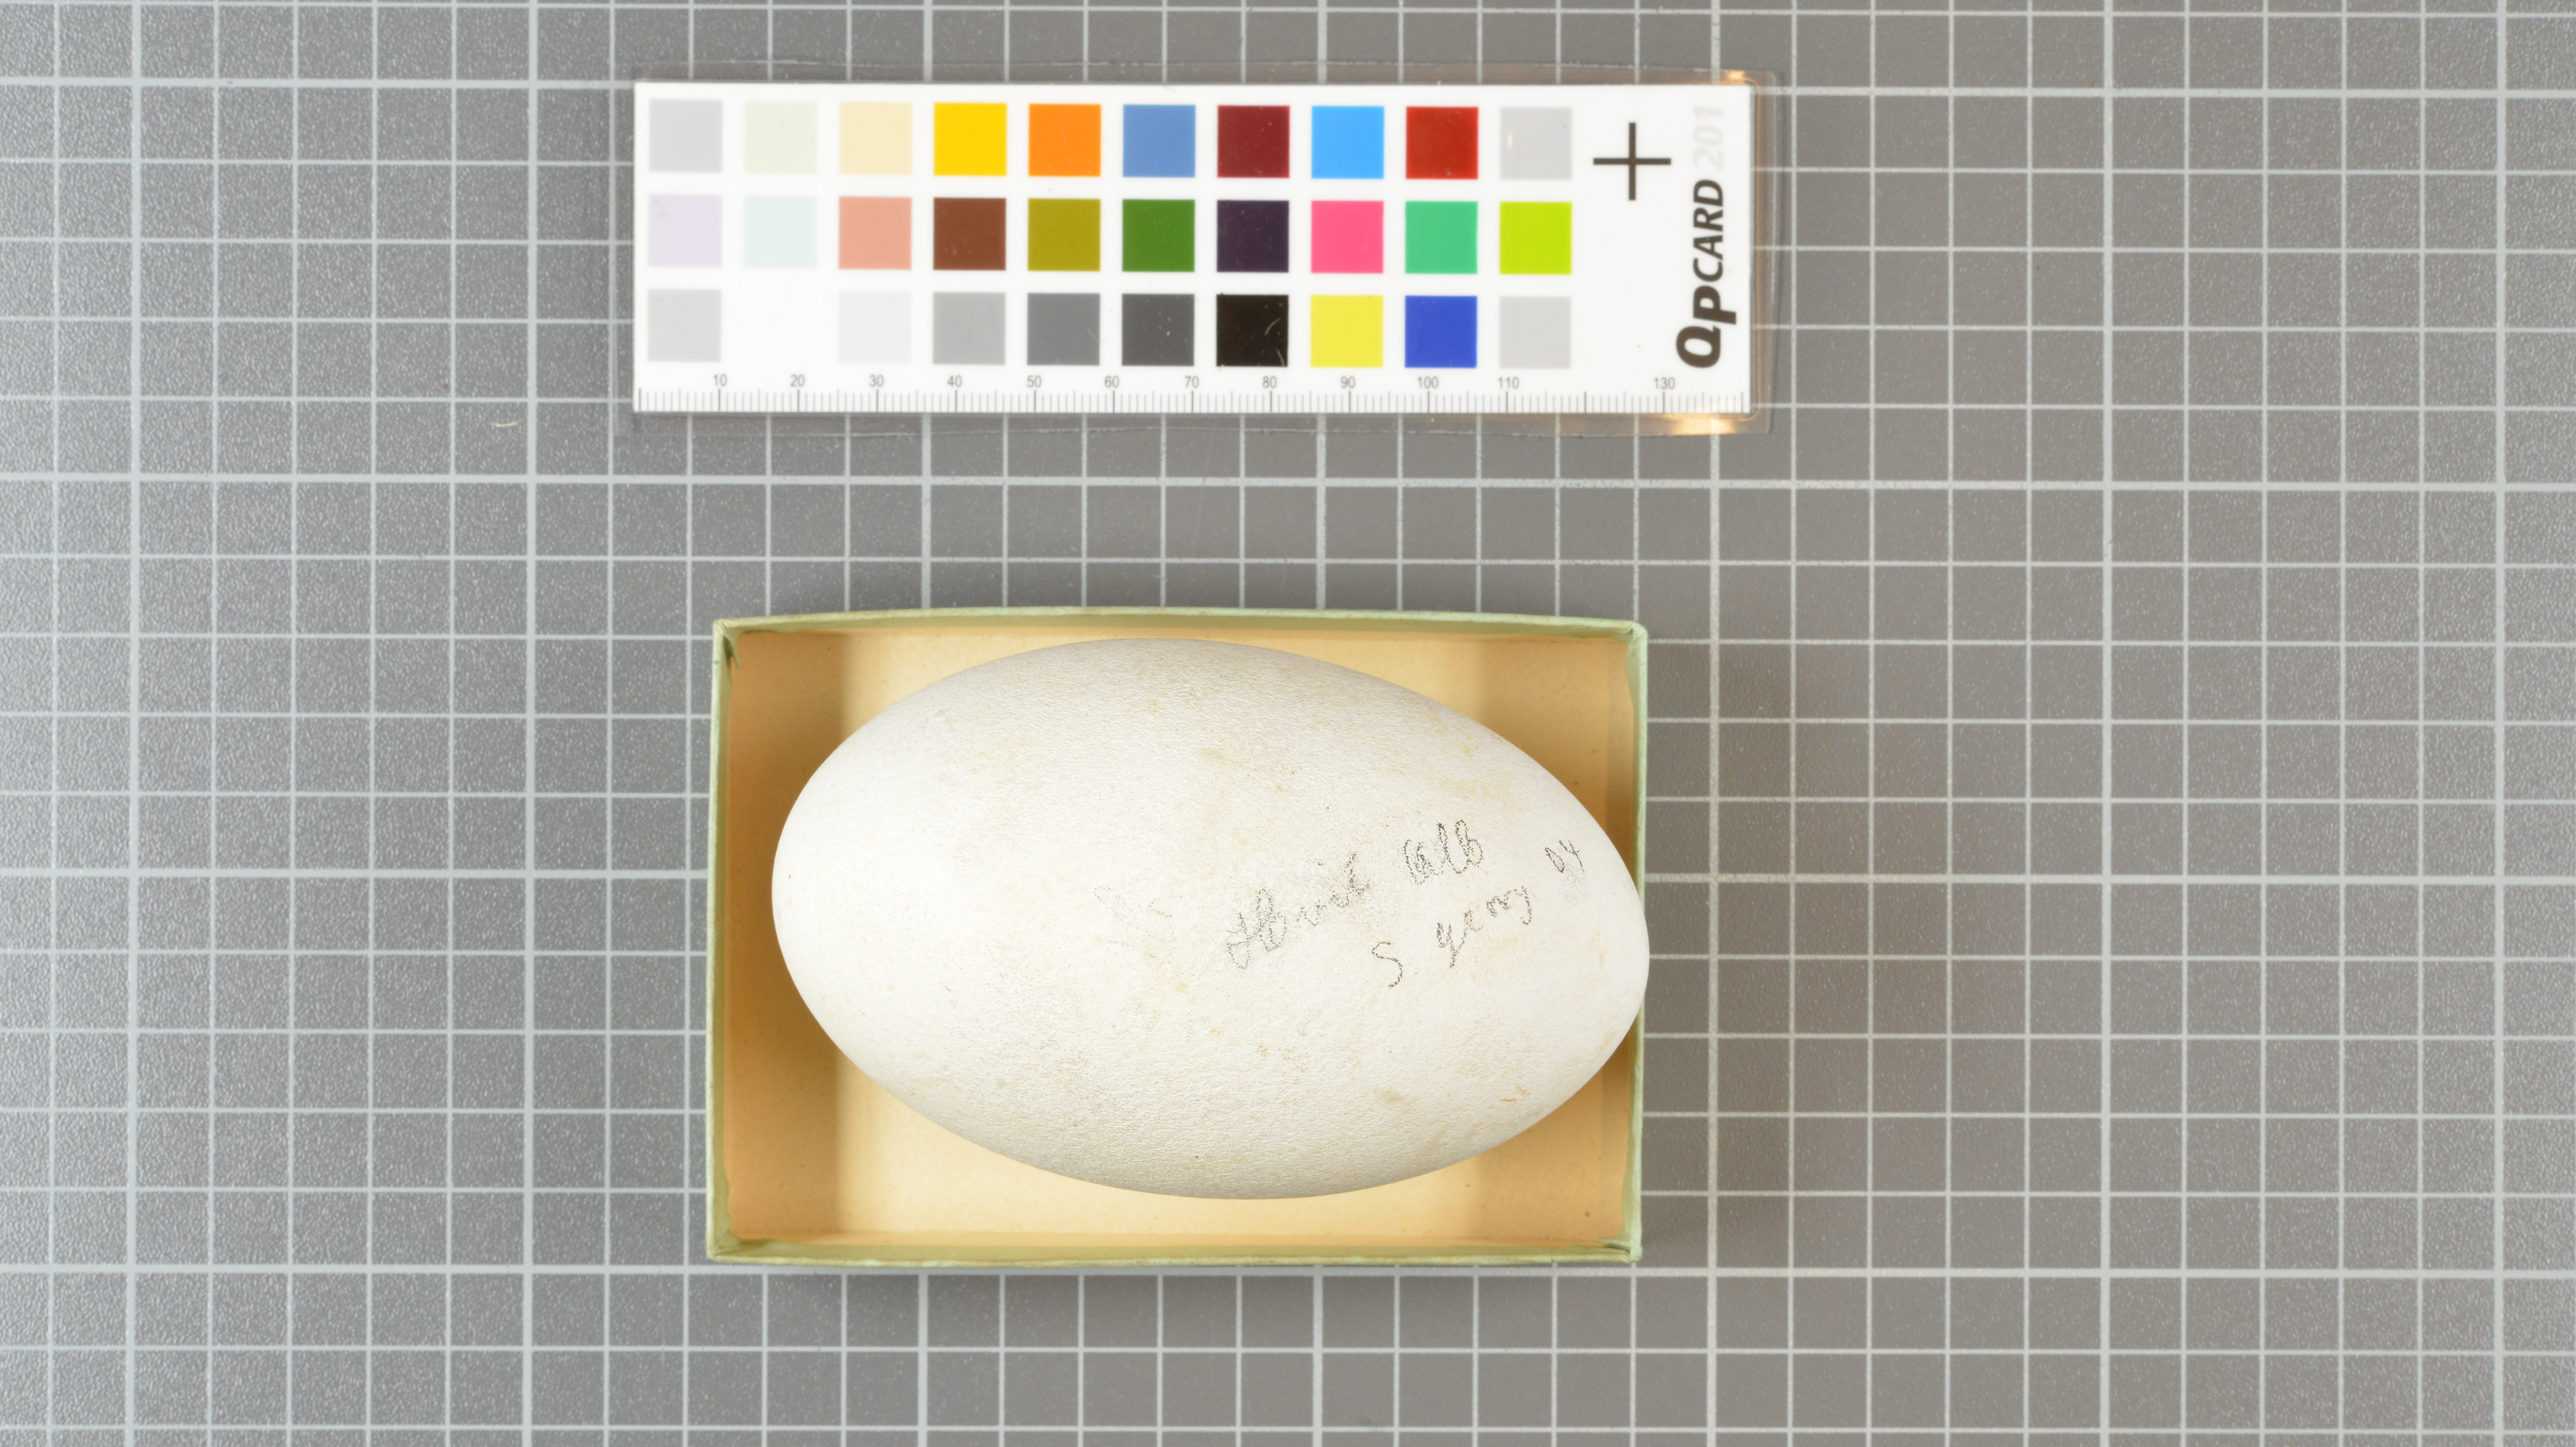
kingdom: Animalia
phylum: Chordata
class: Aves
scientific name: Aves
